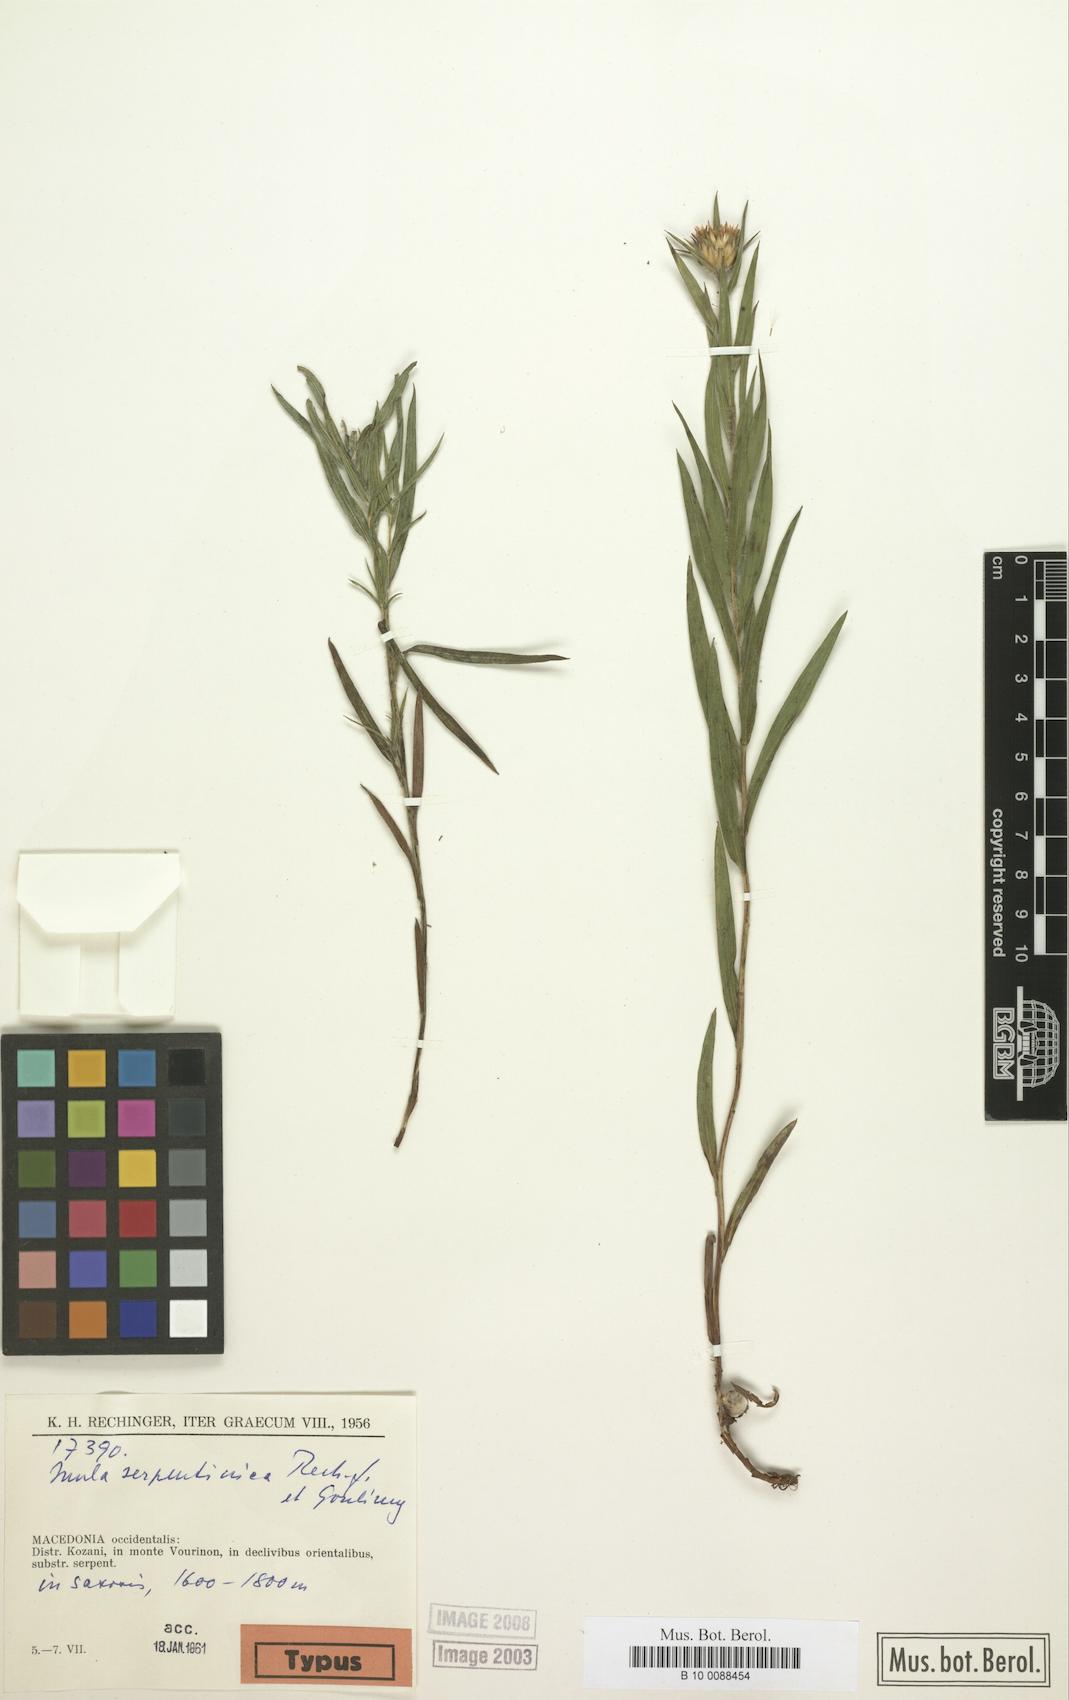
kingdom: Plantae
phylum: Tracheophyta
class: Magnoliopsida
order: Asterales
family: Asteraceae
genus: Pentanema
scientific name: Pentanema ensifolium
